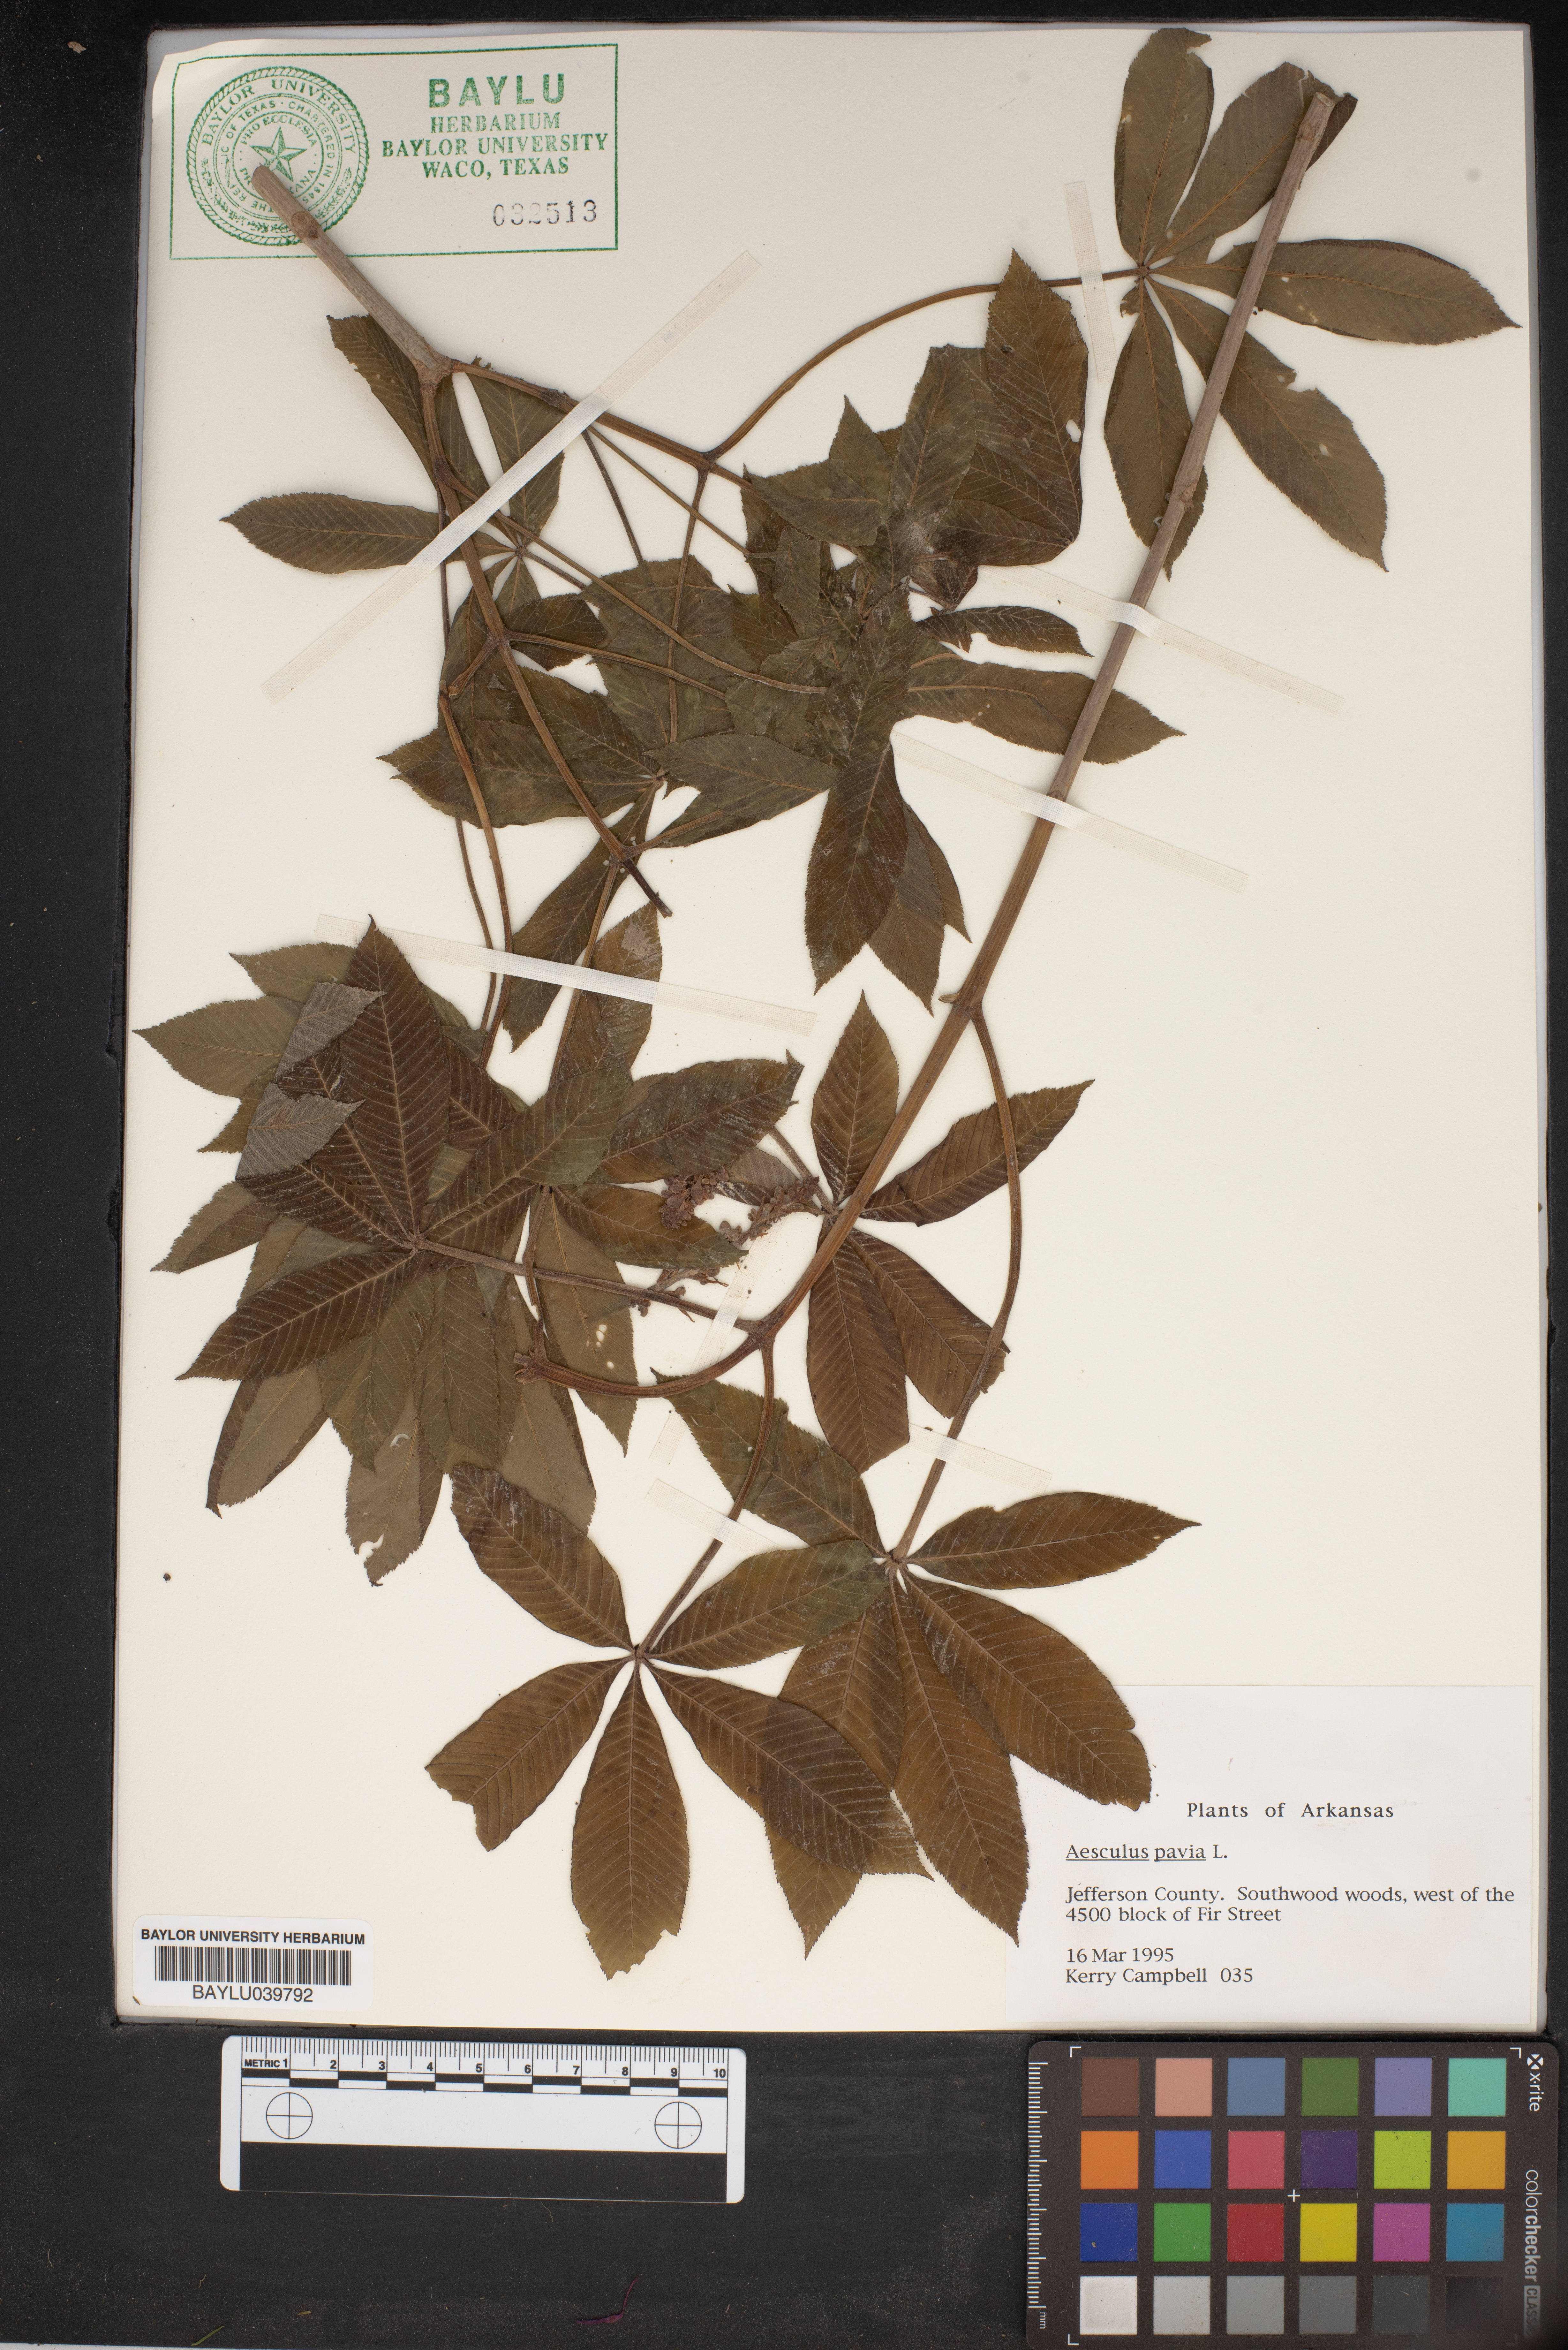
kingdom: Plantae
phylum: Tracheophyta
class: Magnoliopsida
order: Sapindales
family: Sapindaceae
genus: Aesculus
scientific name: Aesculus pavia
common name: Red buckeye
